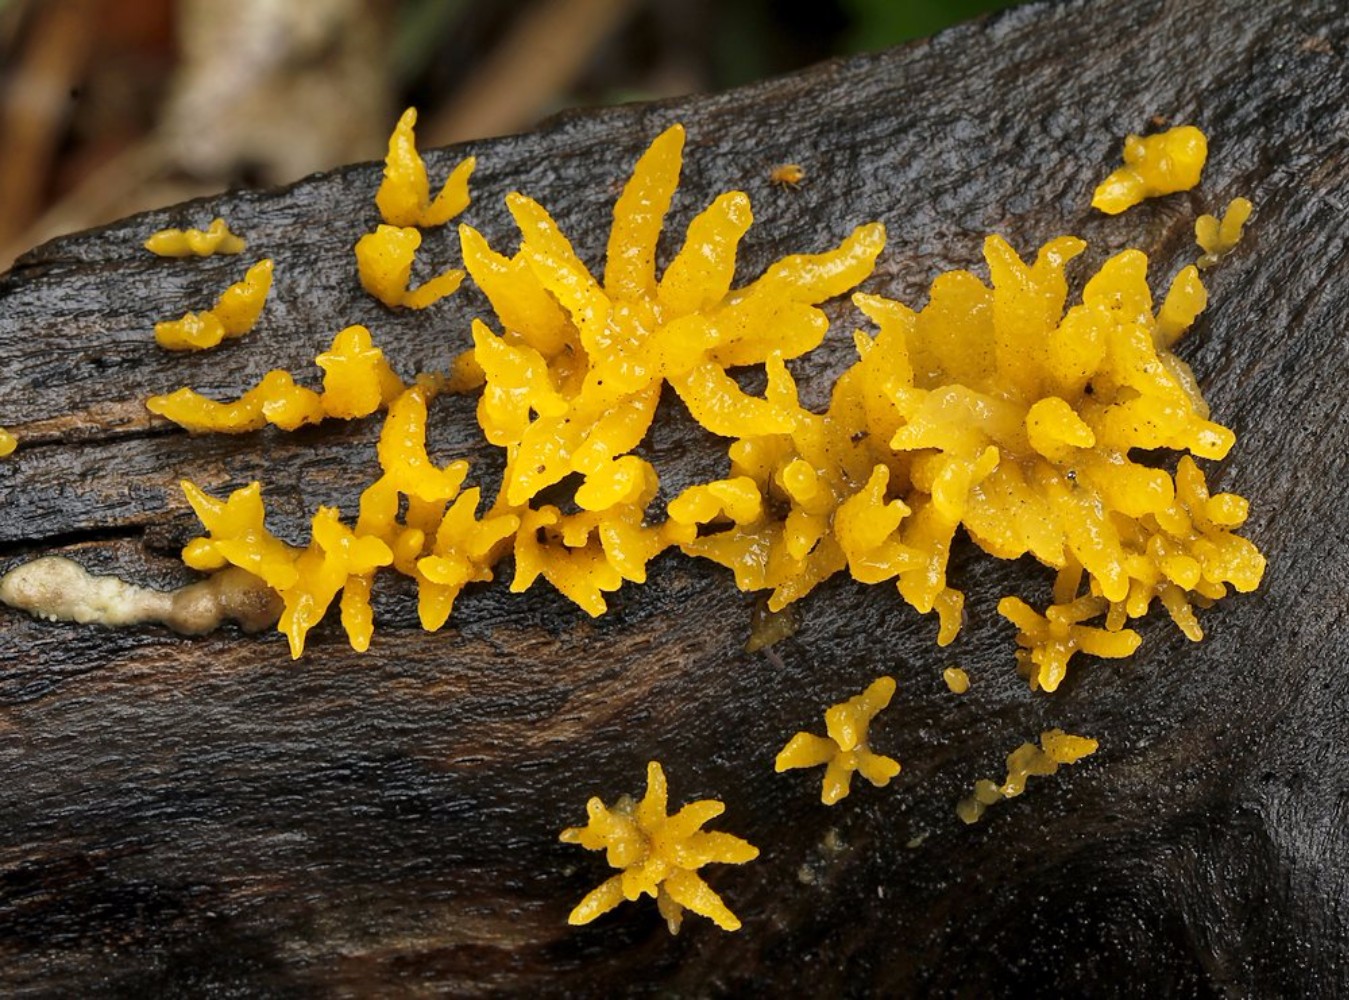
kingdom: Fungi
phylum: Basidiomycota
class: Dacrymycetes
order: Dacrymycetales
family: Dacrymycetaceae
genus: Calocera
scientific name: Calocera cornea
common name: liden guldgaffel
